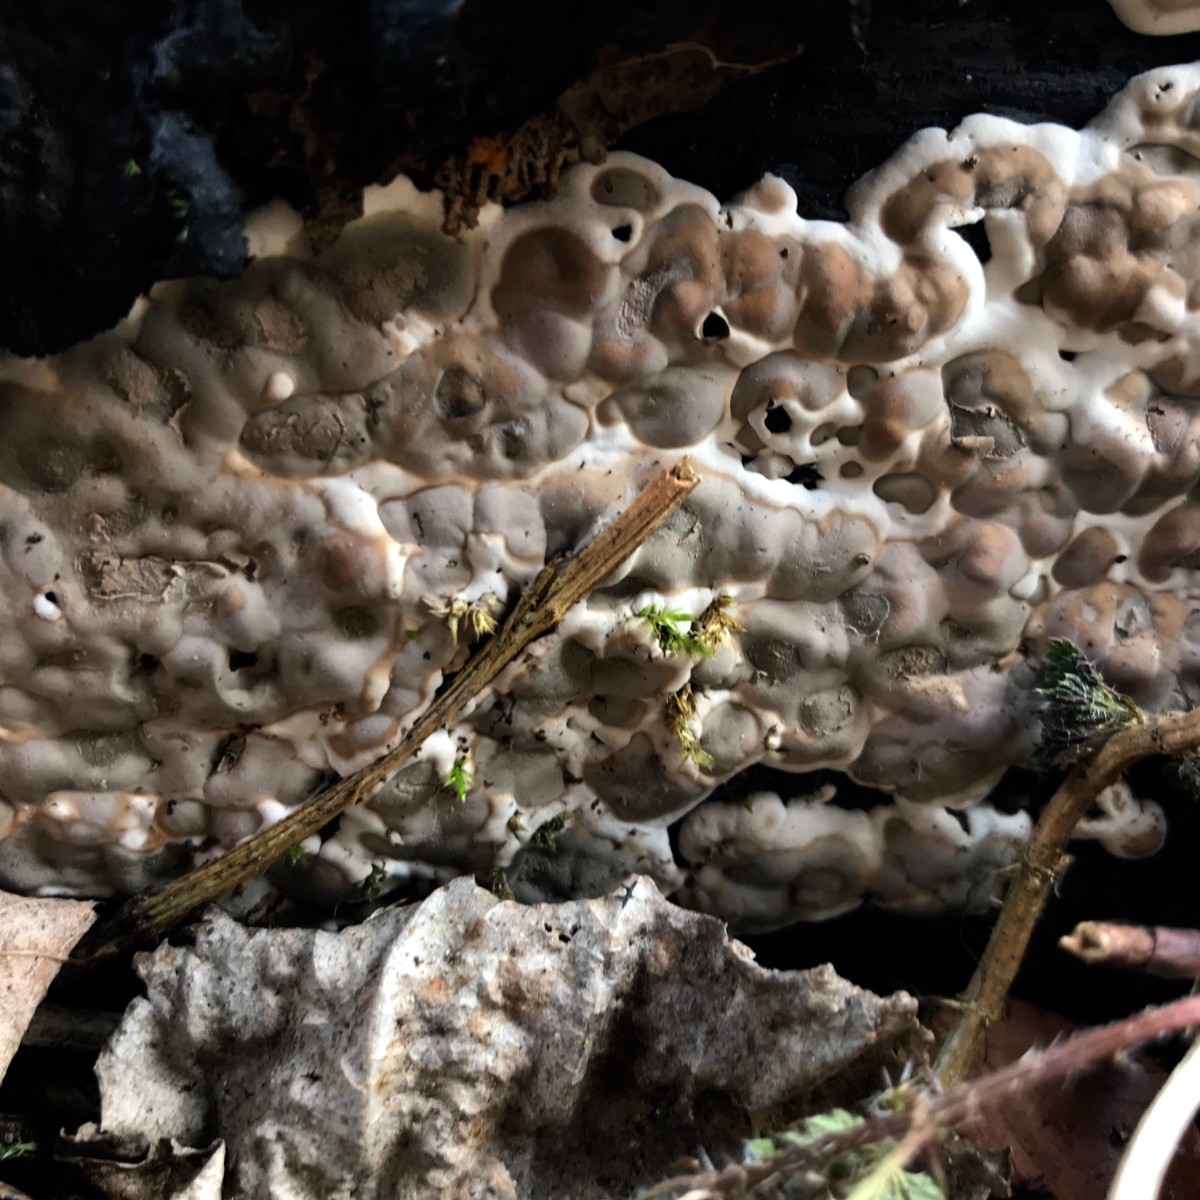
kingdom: Fungi
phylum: Ascomycota
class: Sordariomycetes
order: Xylariales
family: Xylariaceae
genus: Kretzschmaria
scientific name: Kretzschmaria deusta
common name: stor kulsvamp
